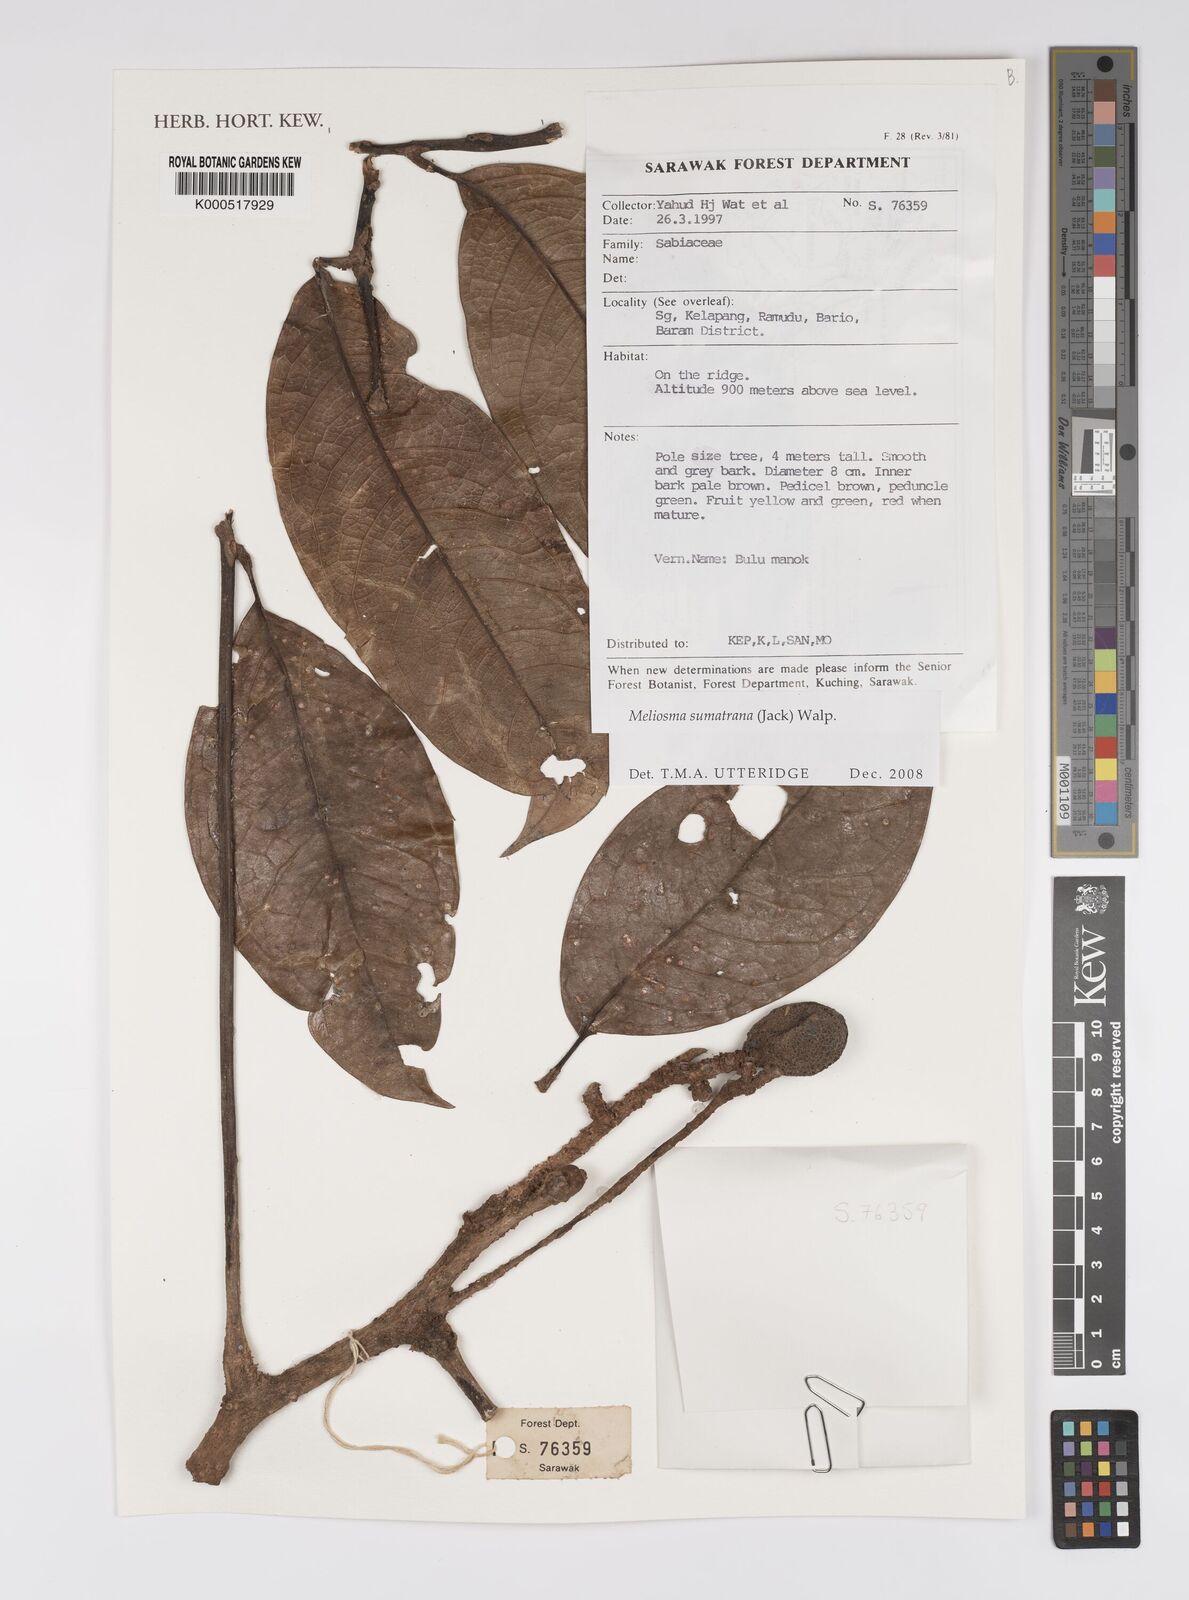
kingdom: Plantae
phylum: Tracheophyta
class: Magnoliopsida
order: Proteales
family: Sabiaceae
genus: Meliosma
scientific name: Meliosma sumatrana
